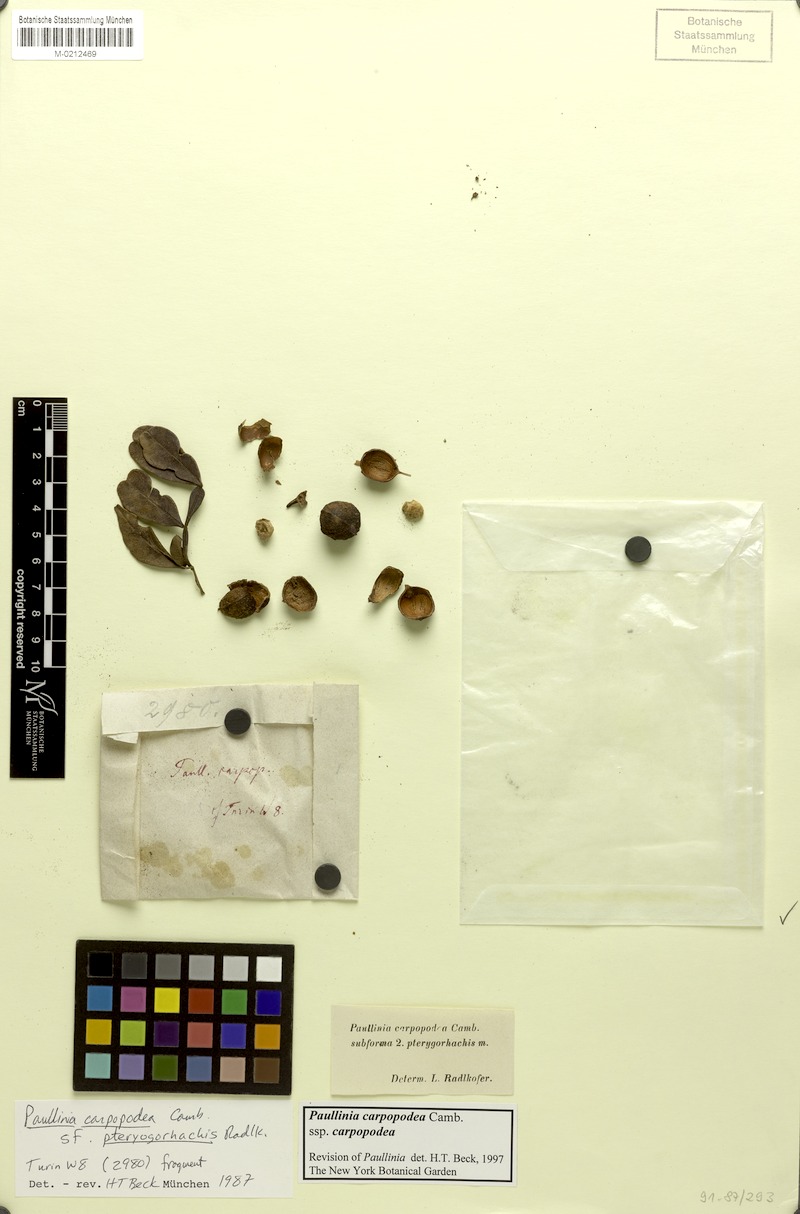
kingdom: Plantae
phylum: Tracheophyta
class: Magnoliopsida
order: Sapindales
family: Sapindaceae
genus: Paullinia
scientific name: Paullinia carpopoda
